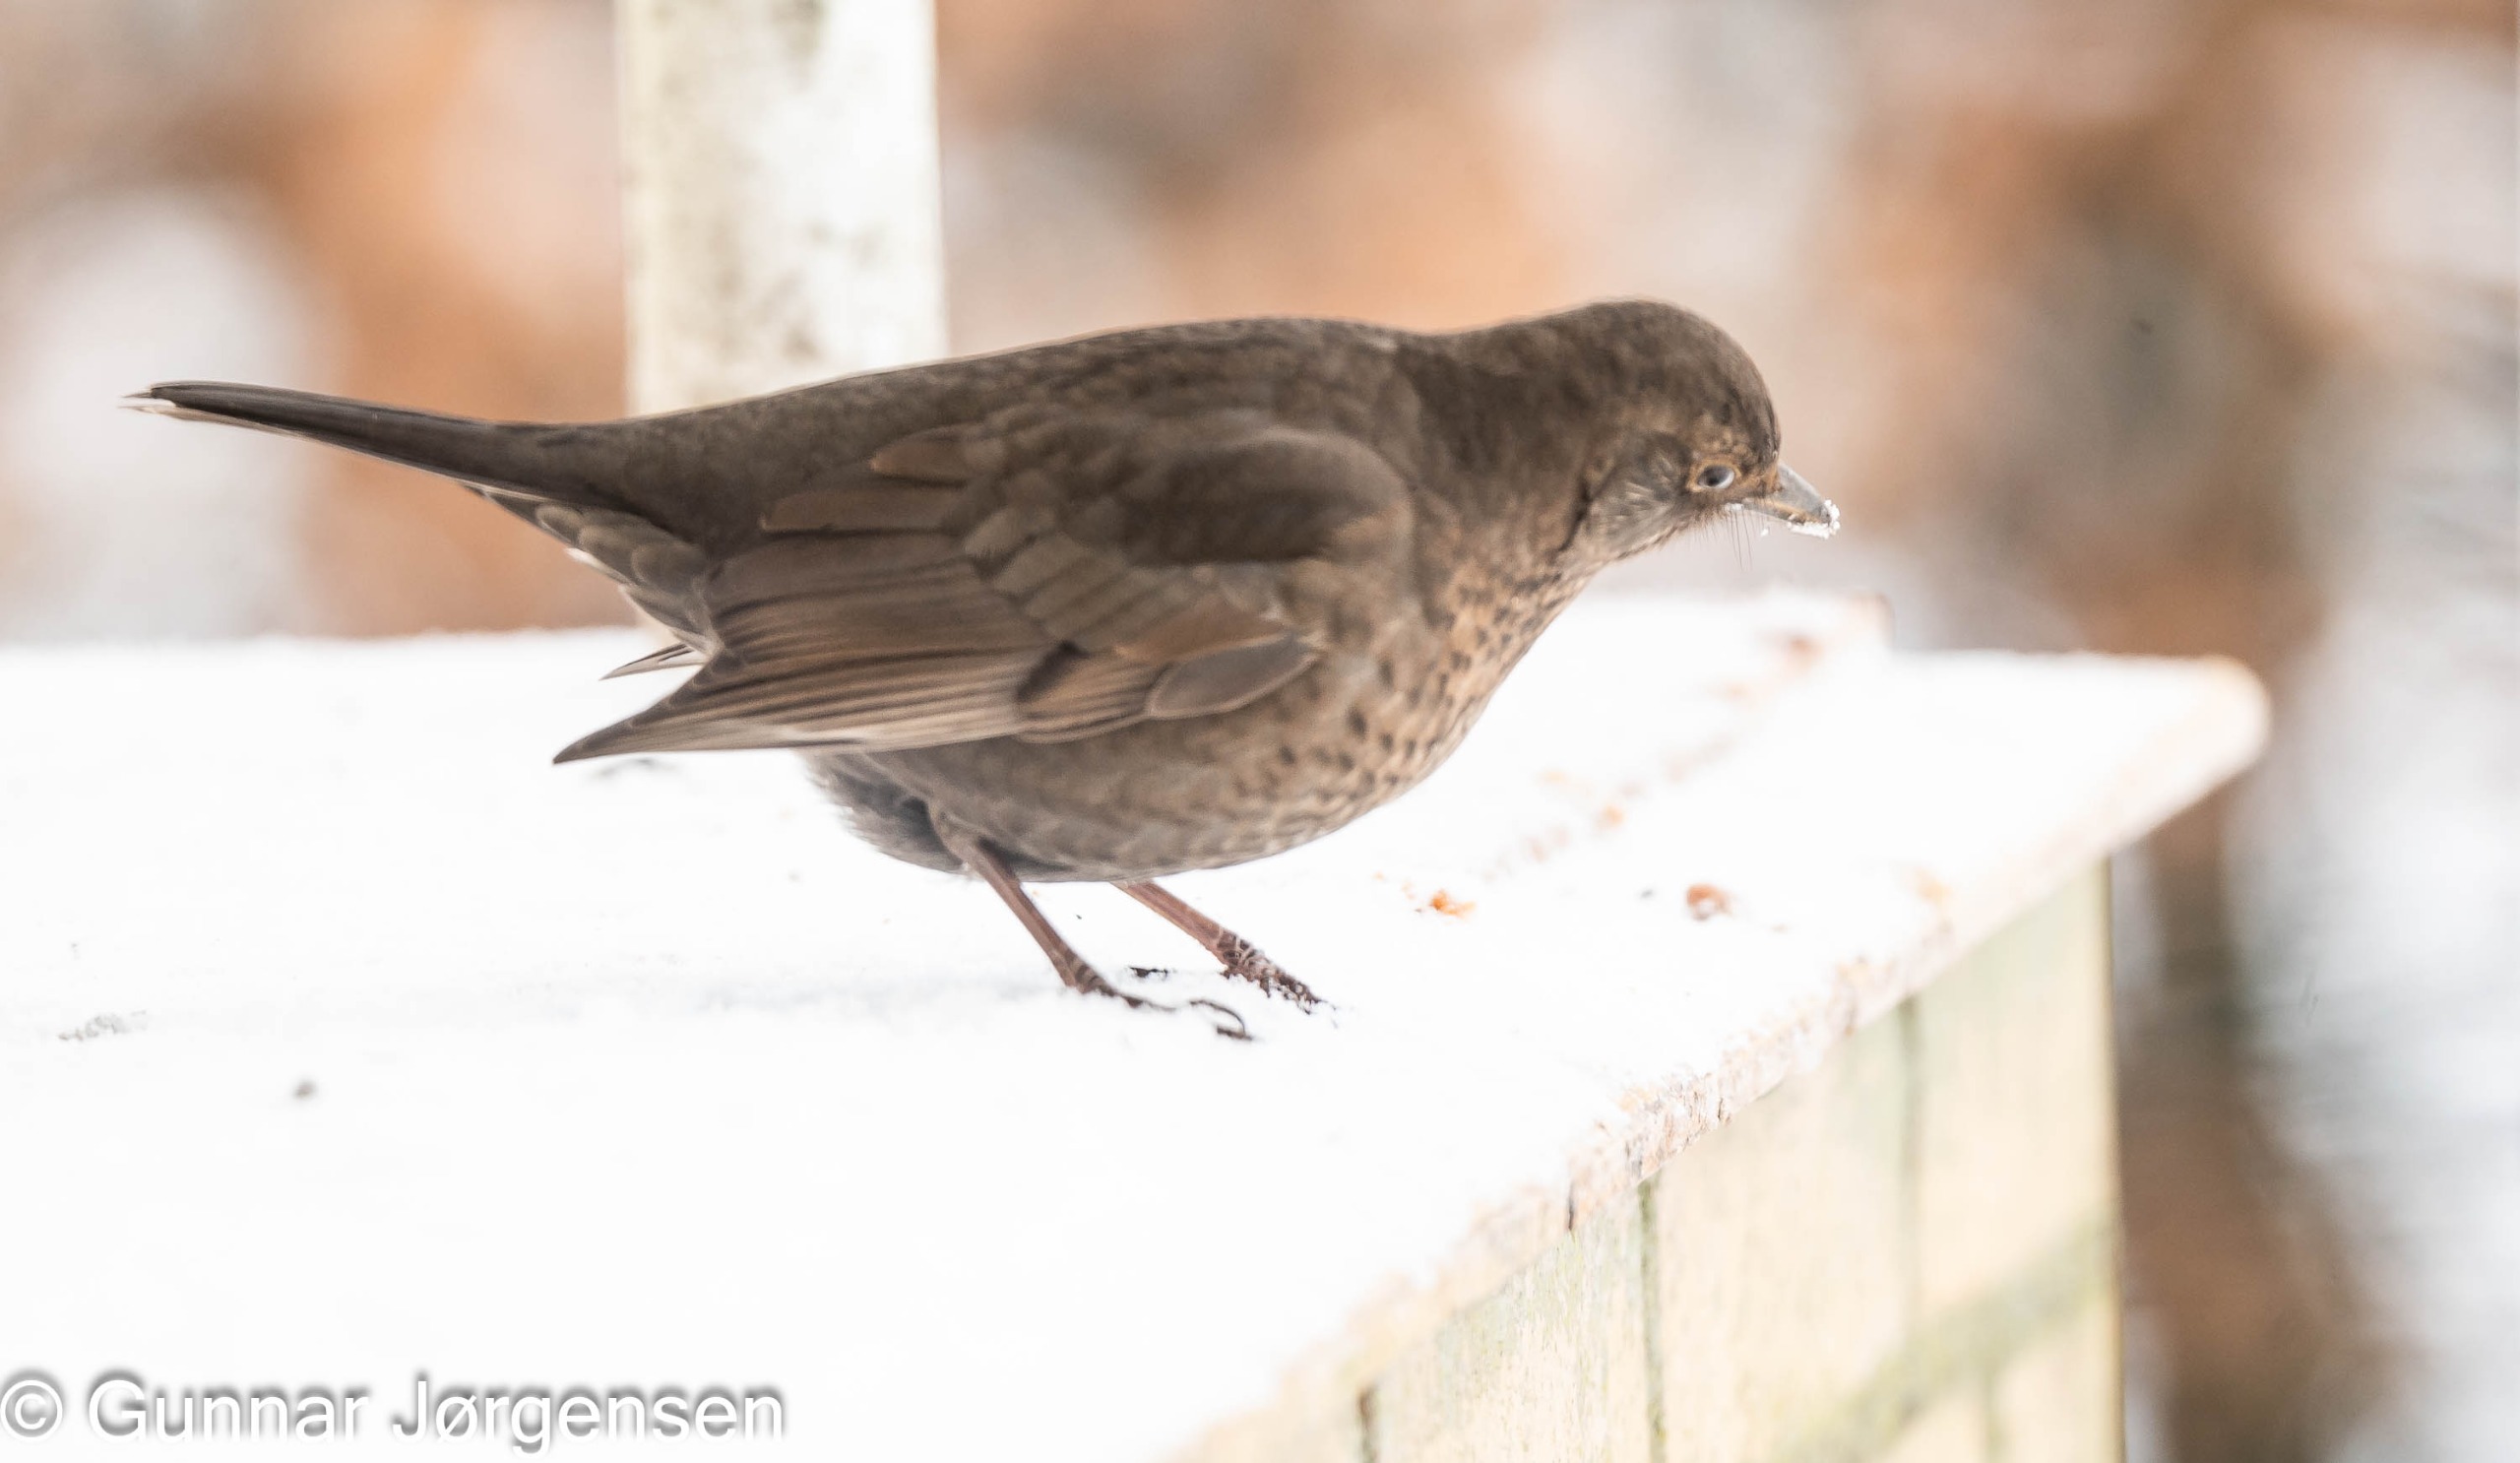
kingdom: Animalia
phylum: Chordata
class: Aves
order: Passeriformes
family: Turdidae
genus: Turdus
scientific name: Turdus merula
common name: Solsort
